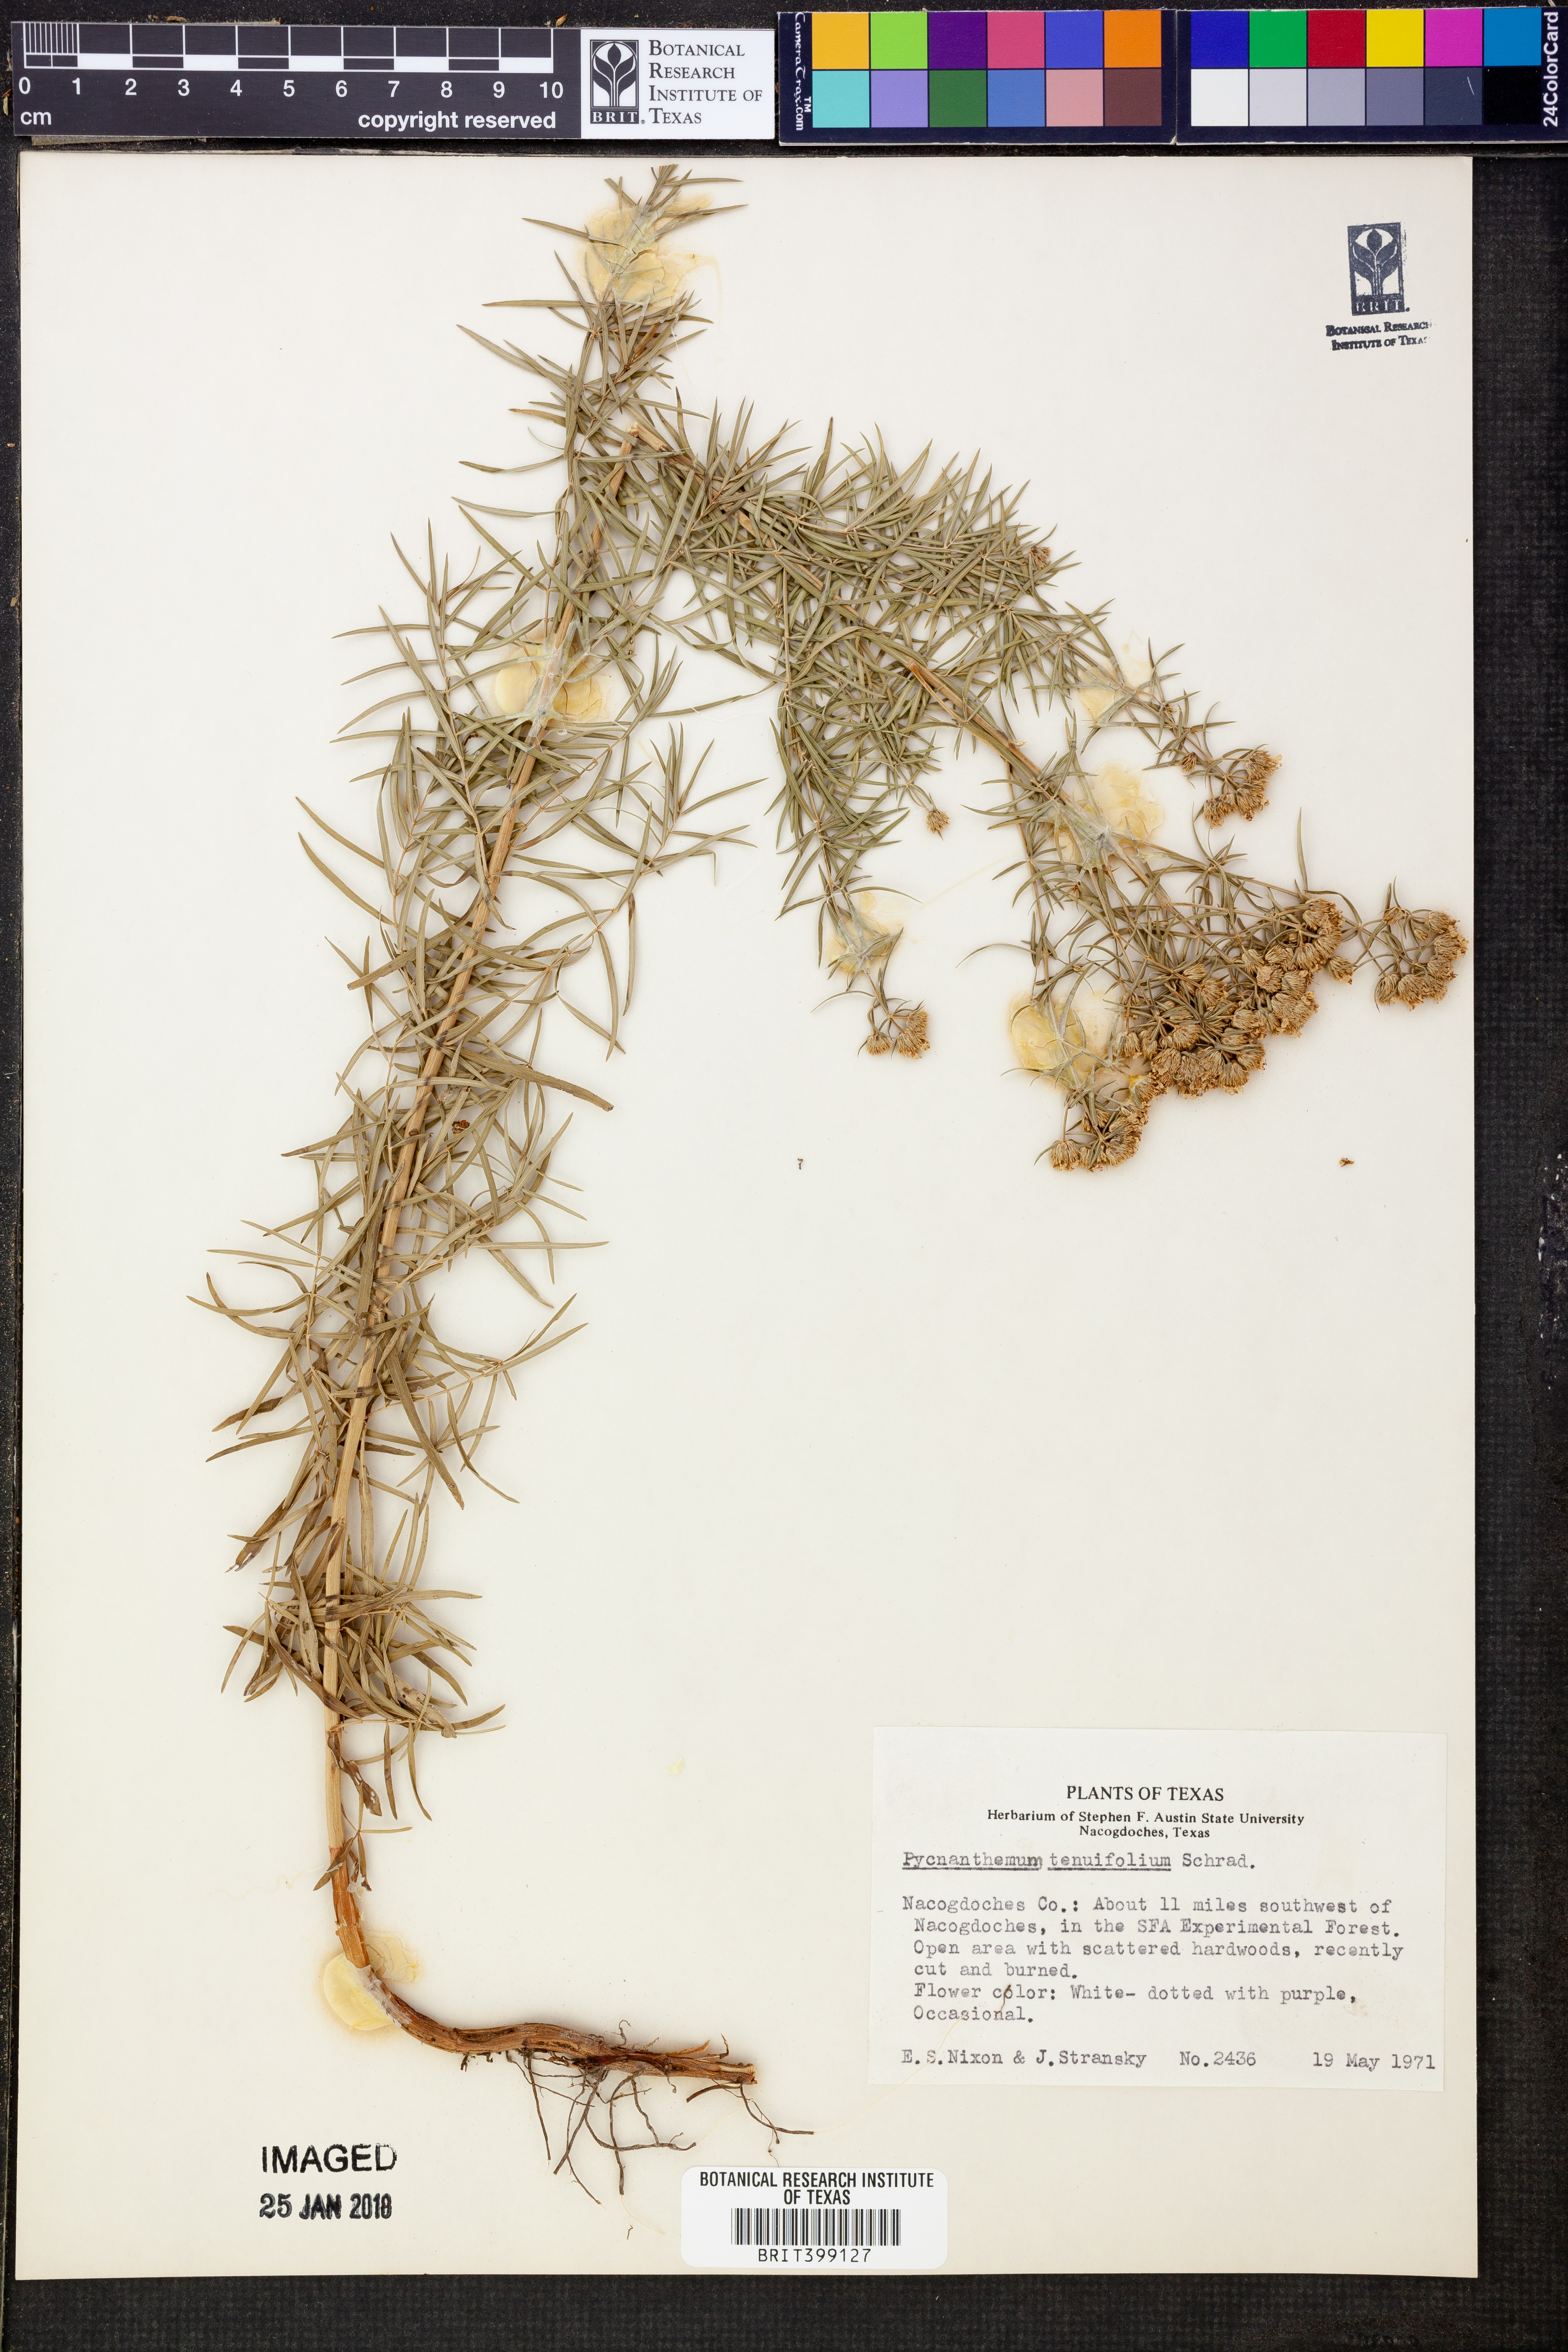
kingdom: Plantae
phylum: Tracheophyta
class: Magnoliopsida
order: Lamiales
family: Lamiaceae
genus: Pycnanthemum
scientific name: Pycnanthemum tenuifolium
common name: Narrow-leaf mountain-mint
